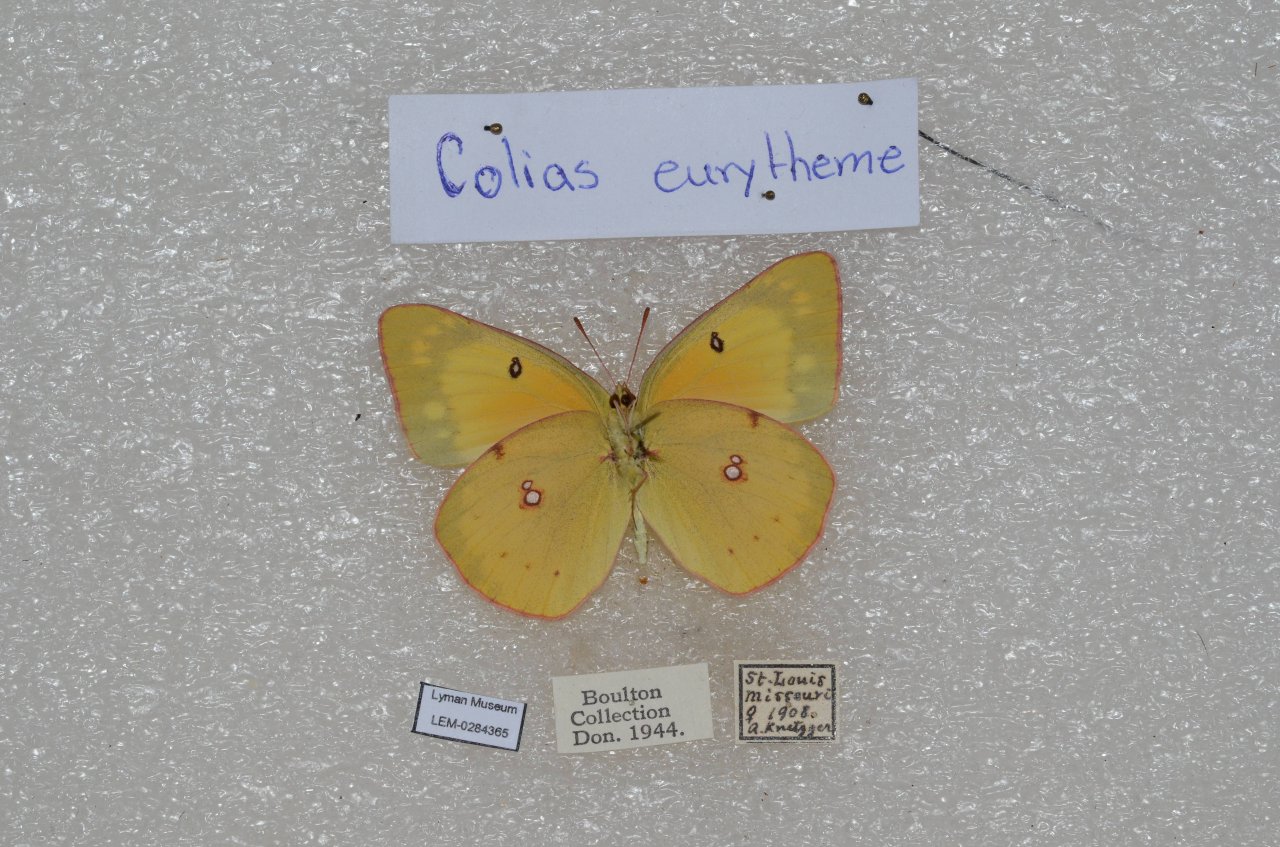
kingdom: Animalia
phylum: Arthropoda
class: Insecta
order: Lepidoptera
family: Pieridae
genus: Colias
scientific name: Colias eurytheme
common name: Orange Sulphur
